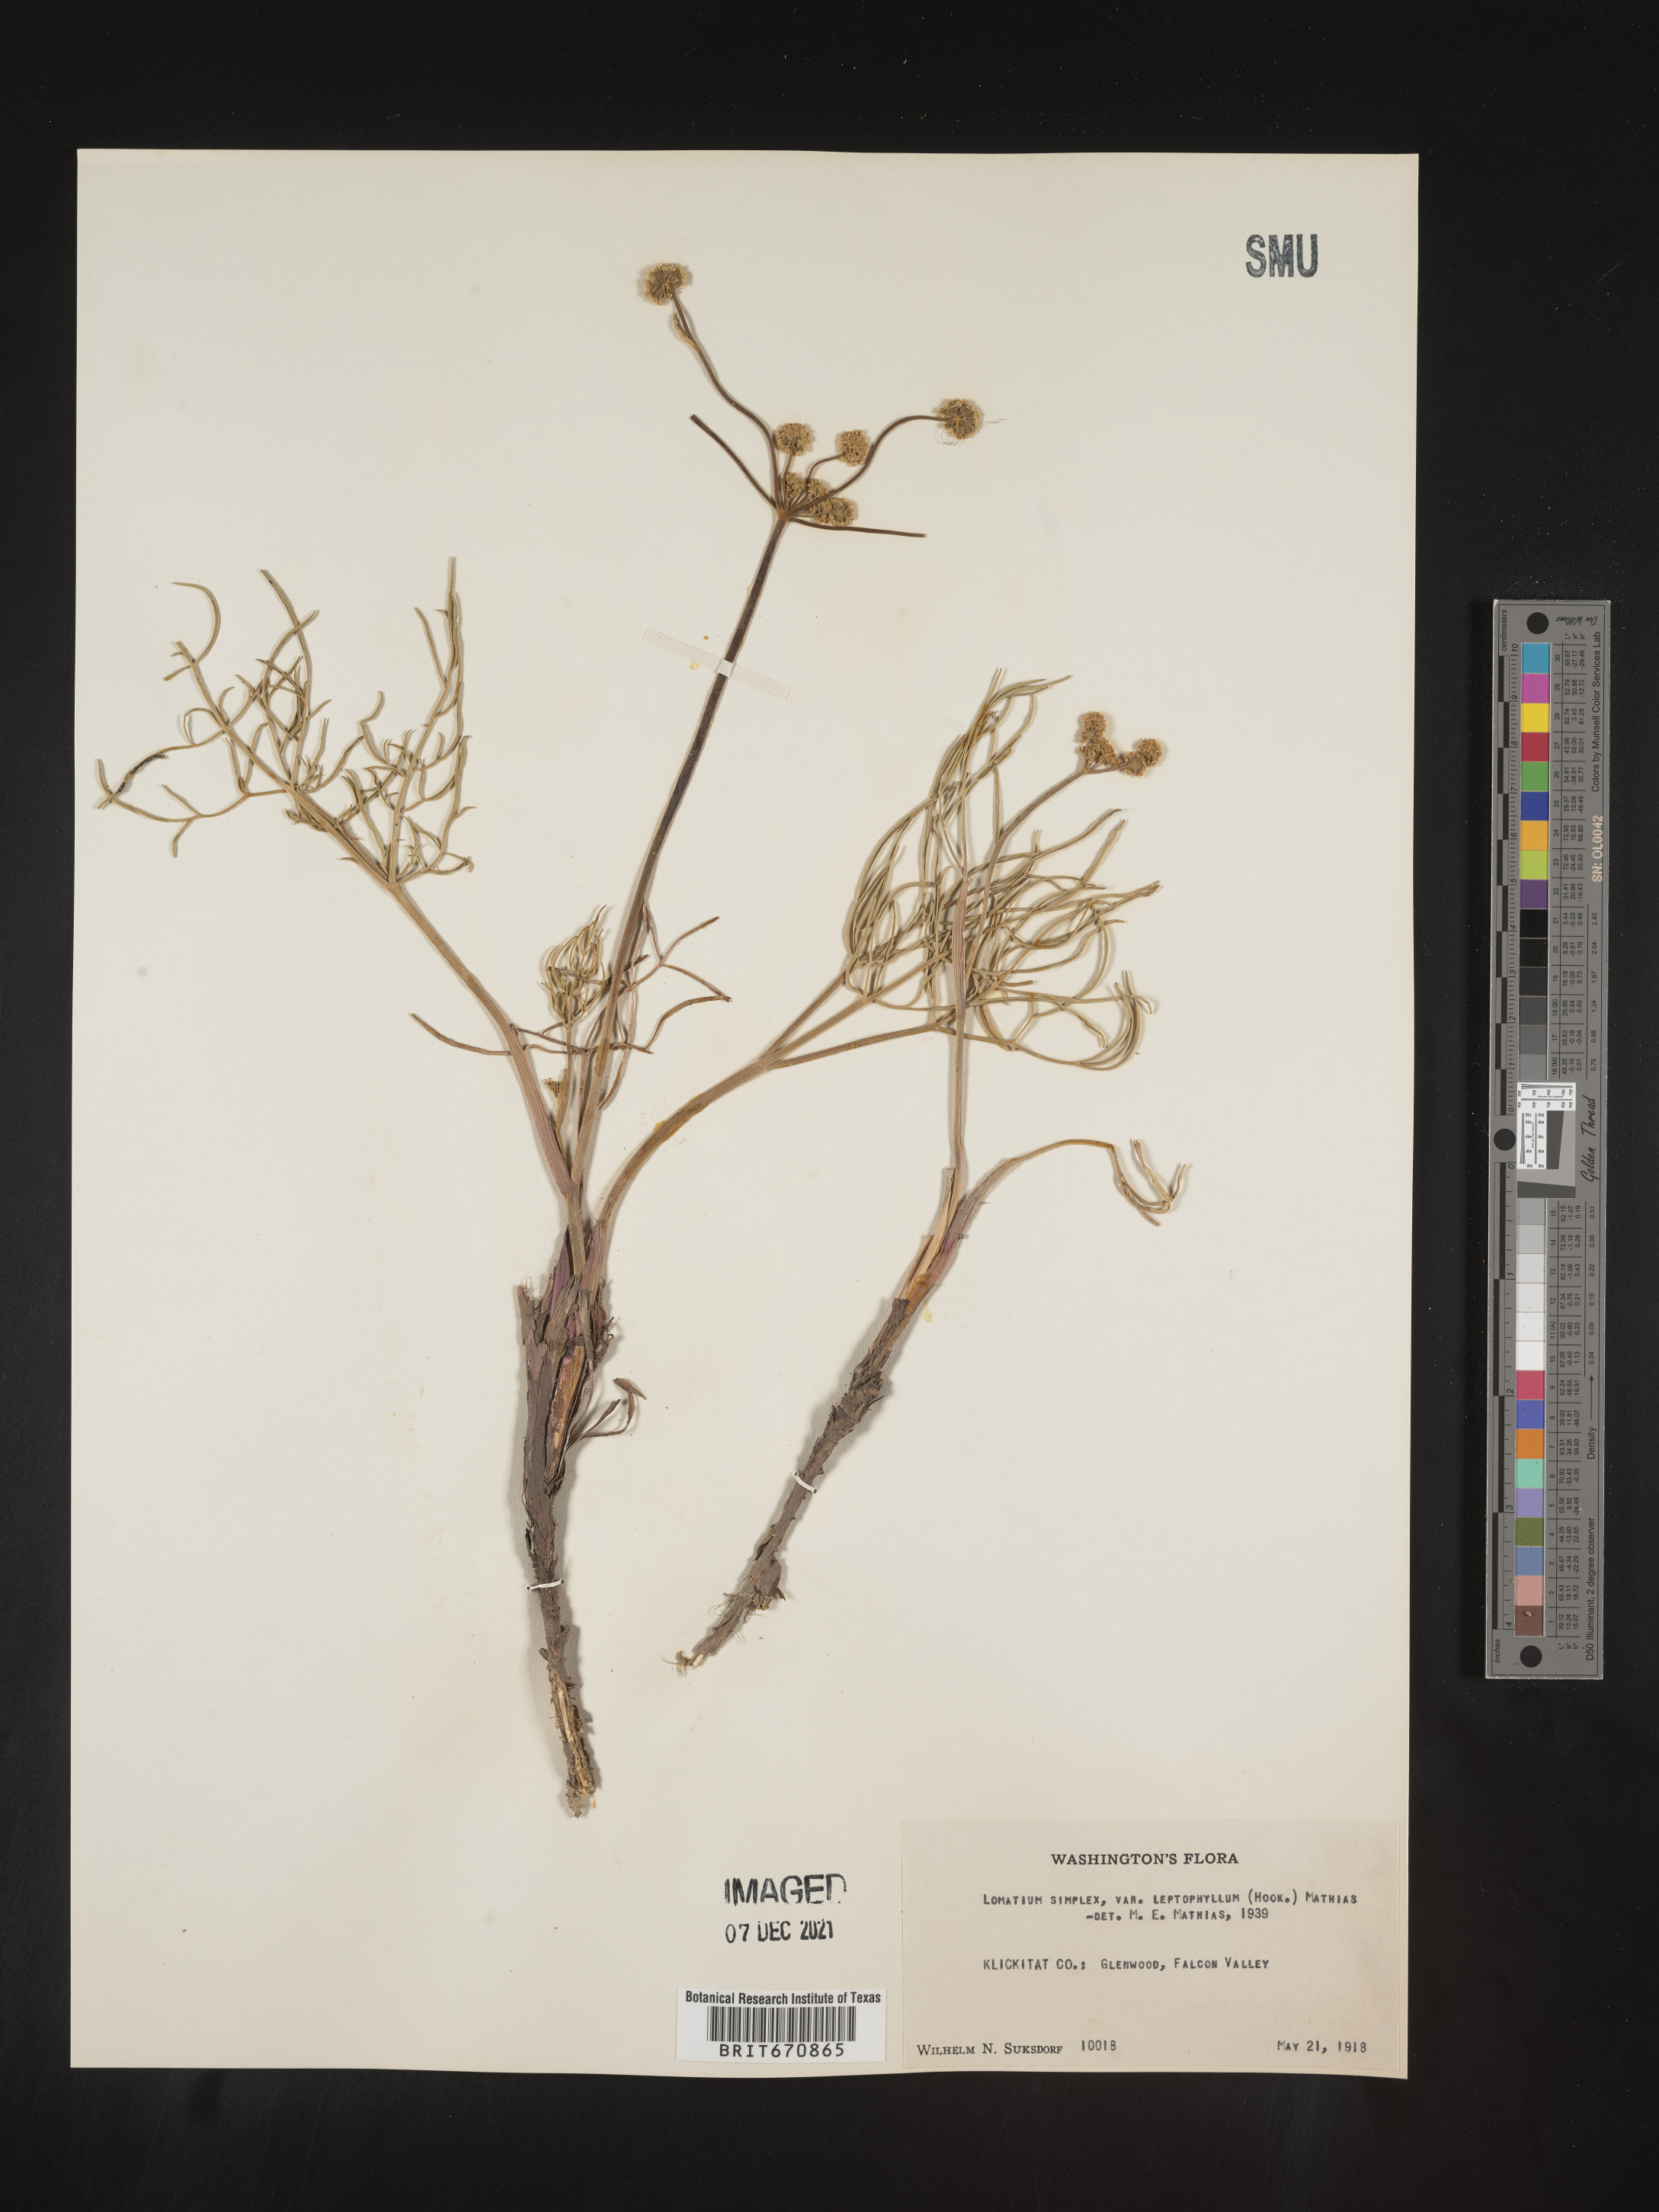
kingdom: Plantae
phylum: Tracheophyta
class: Magnoliopsida
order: Apiales
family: Apiaceae
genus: Lomatium
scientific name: Lomatium simplex
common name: Great basin biscuitroot
